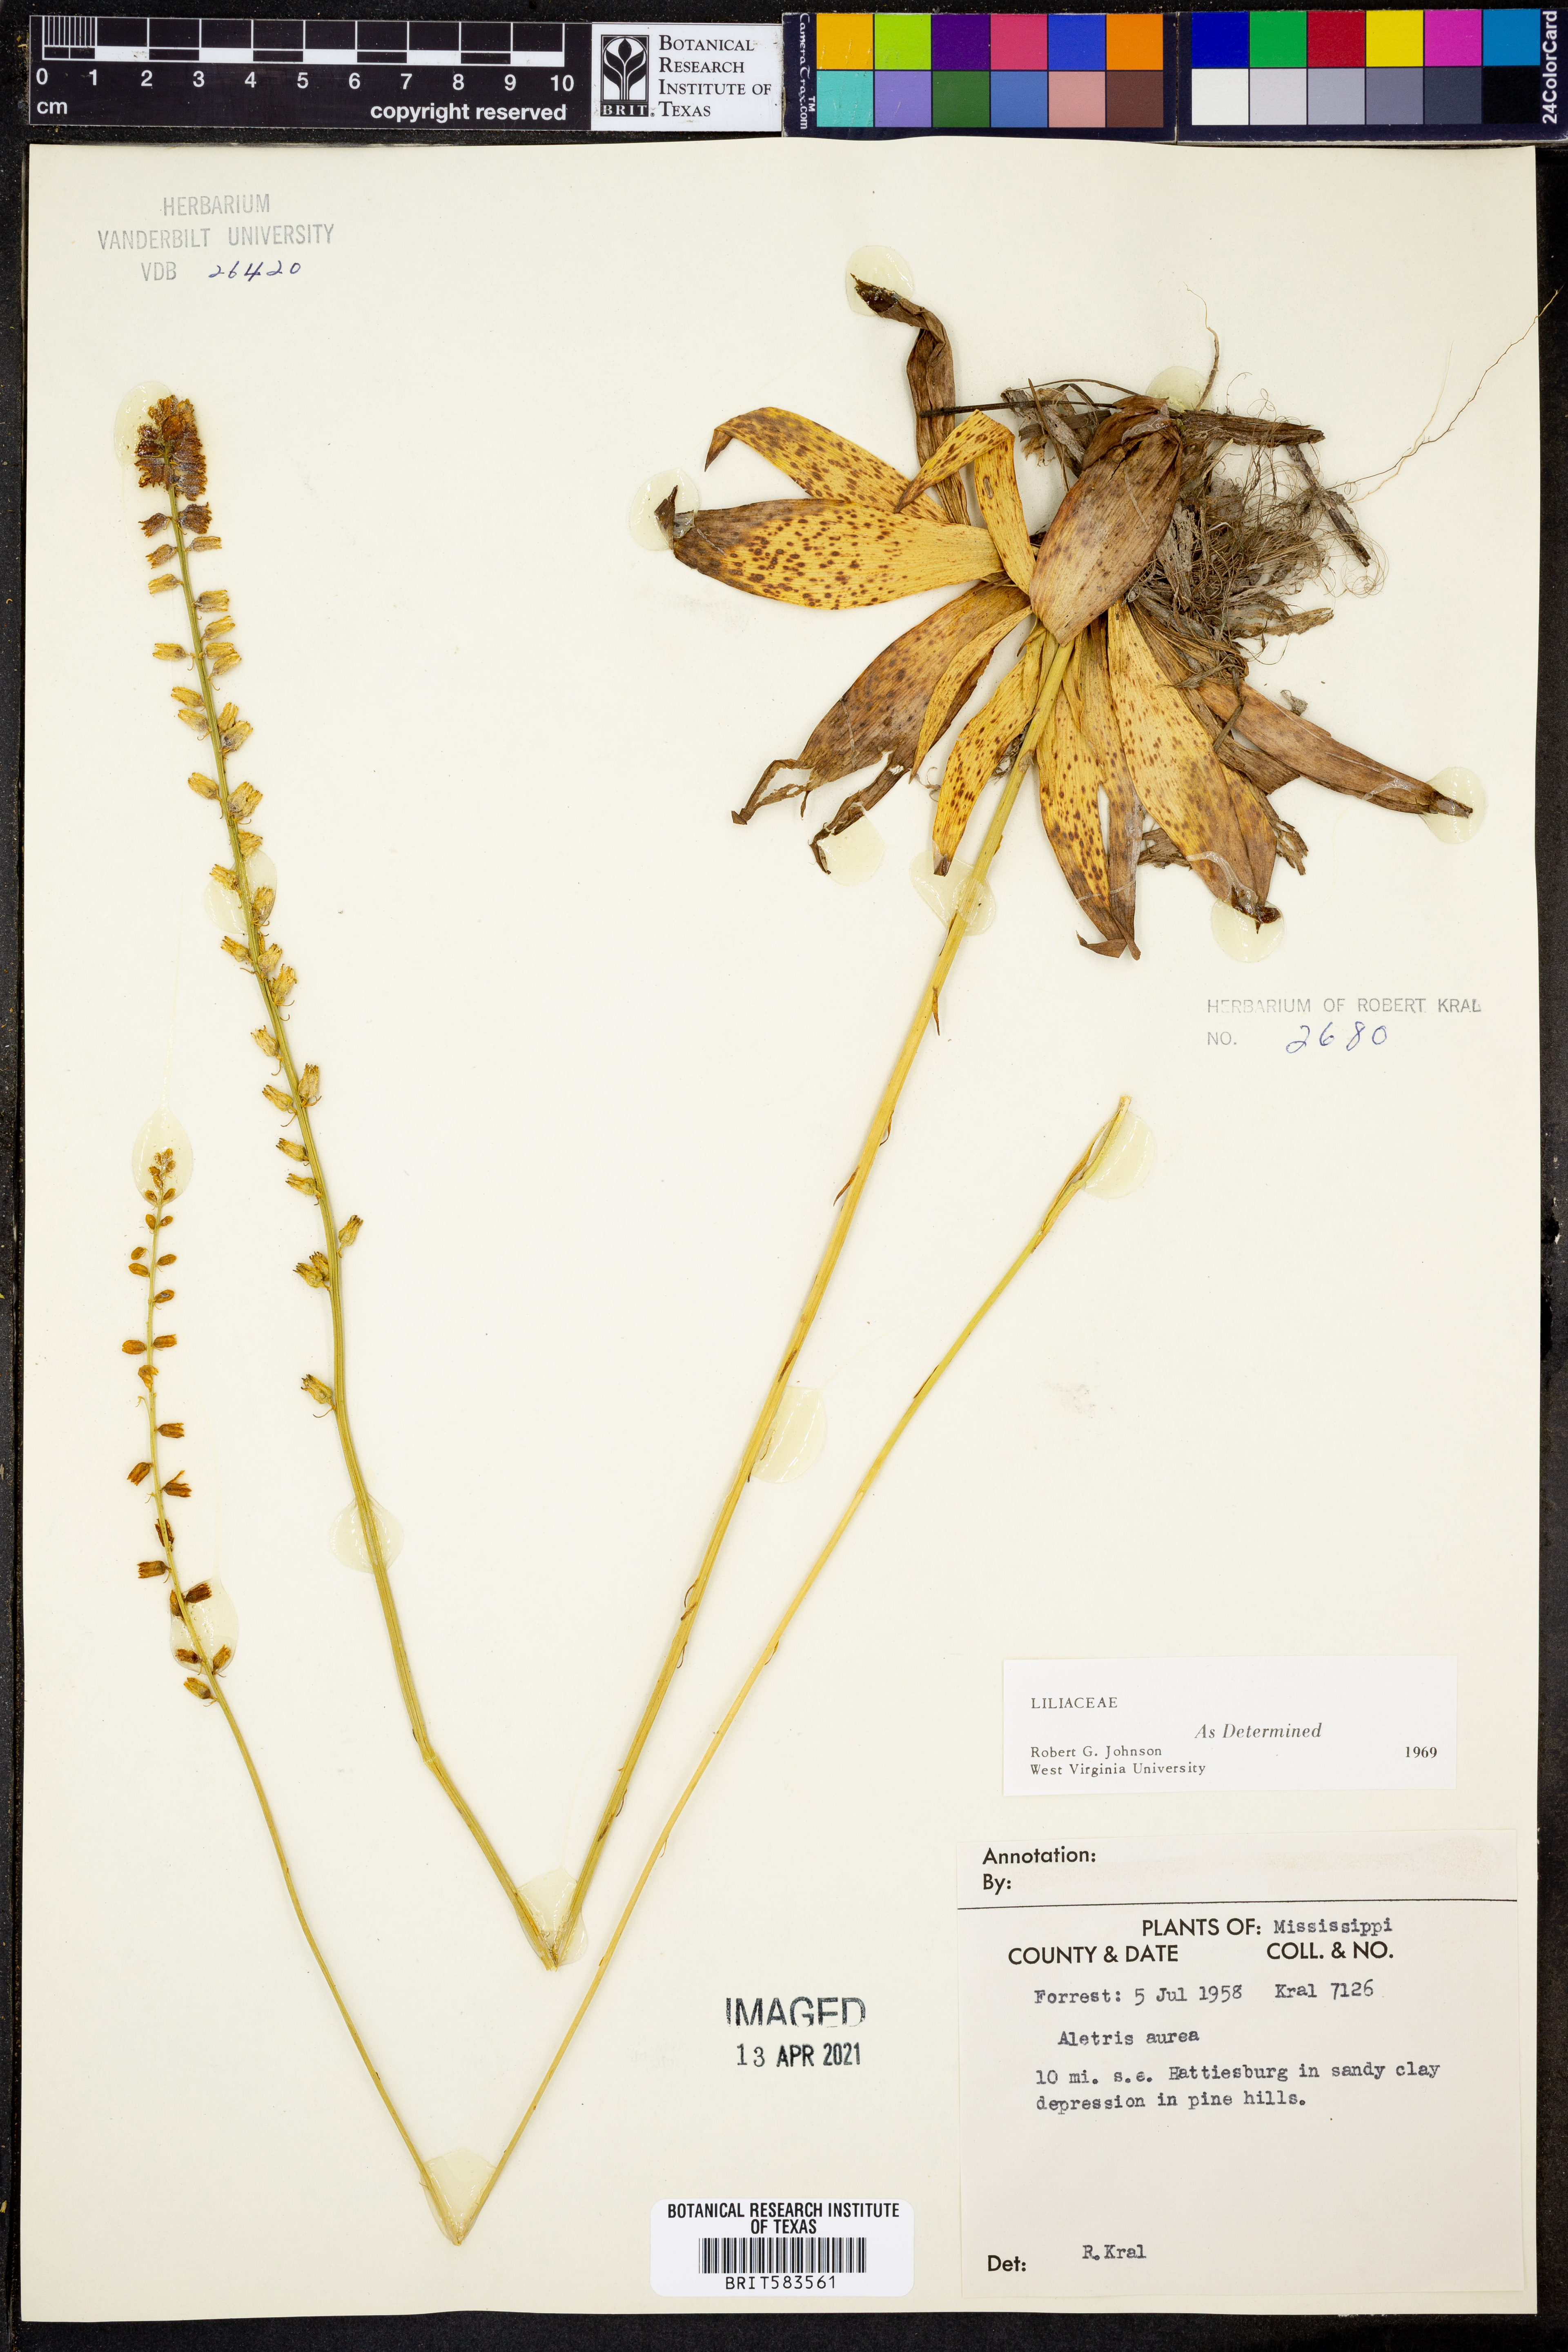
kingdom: Plantae
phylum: Tracheophyta
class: Liliopsida
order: Dioscoreales
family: Nartheciaceae
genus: Aletris
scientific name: Aletris aurea
